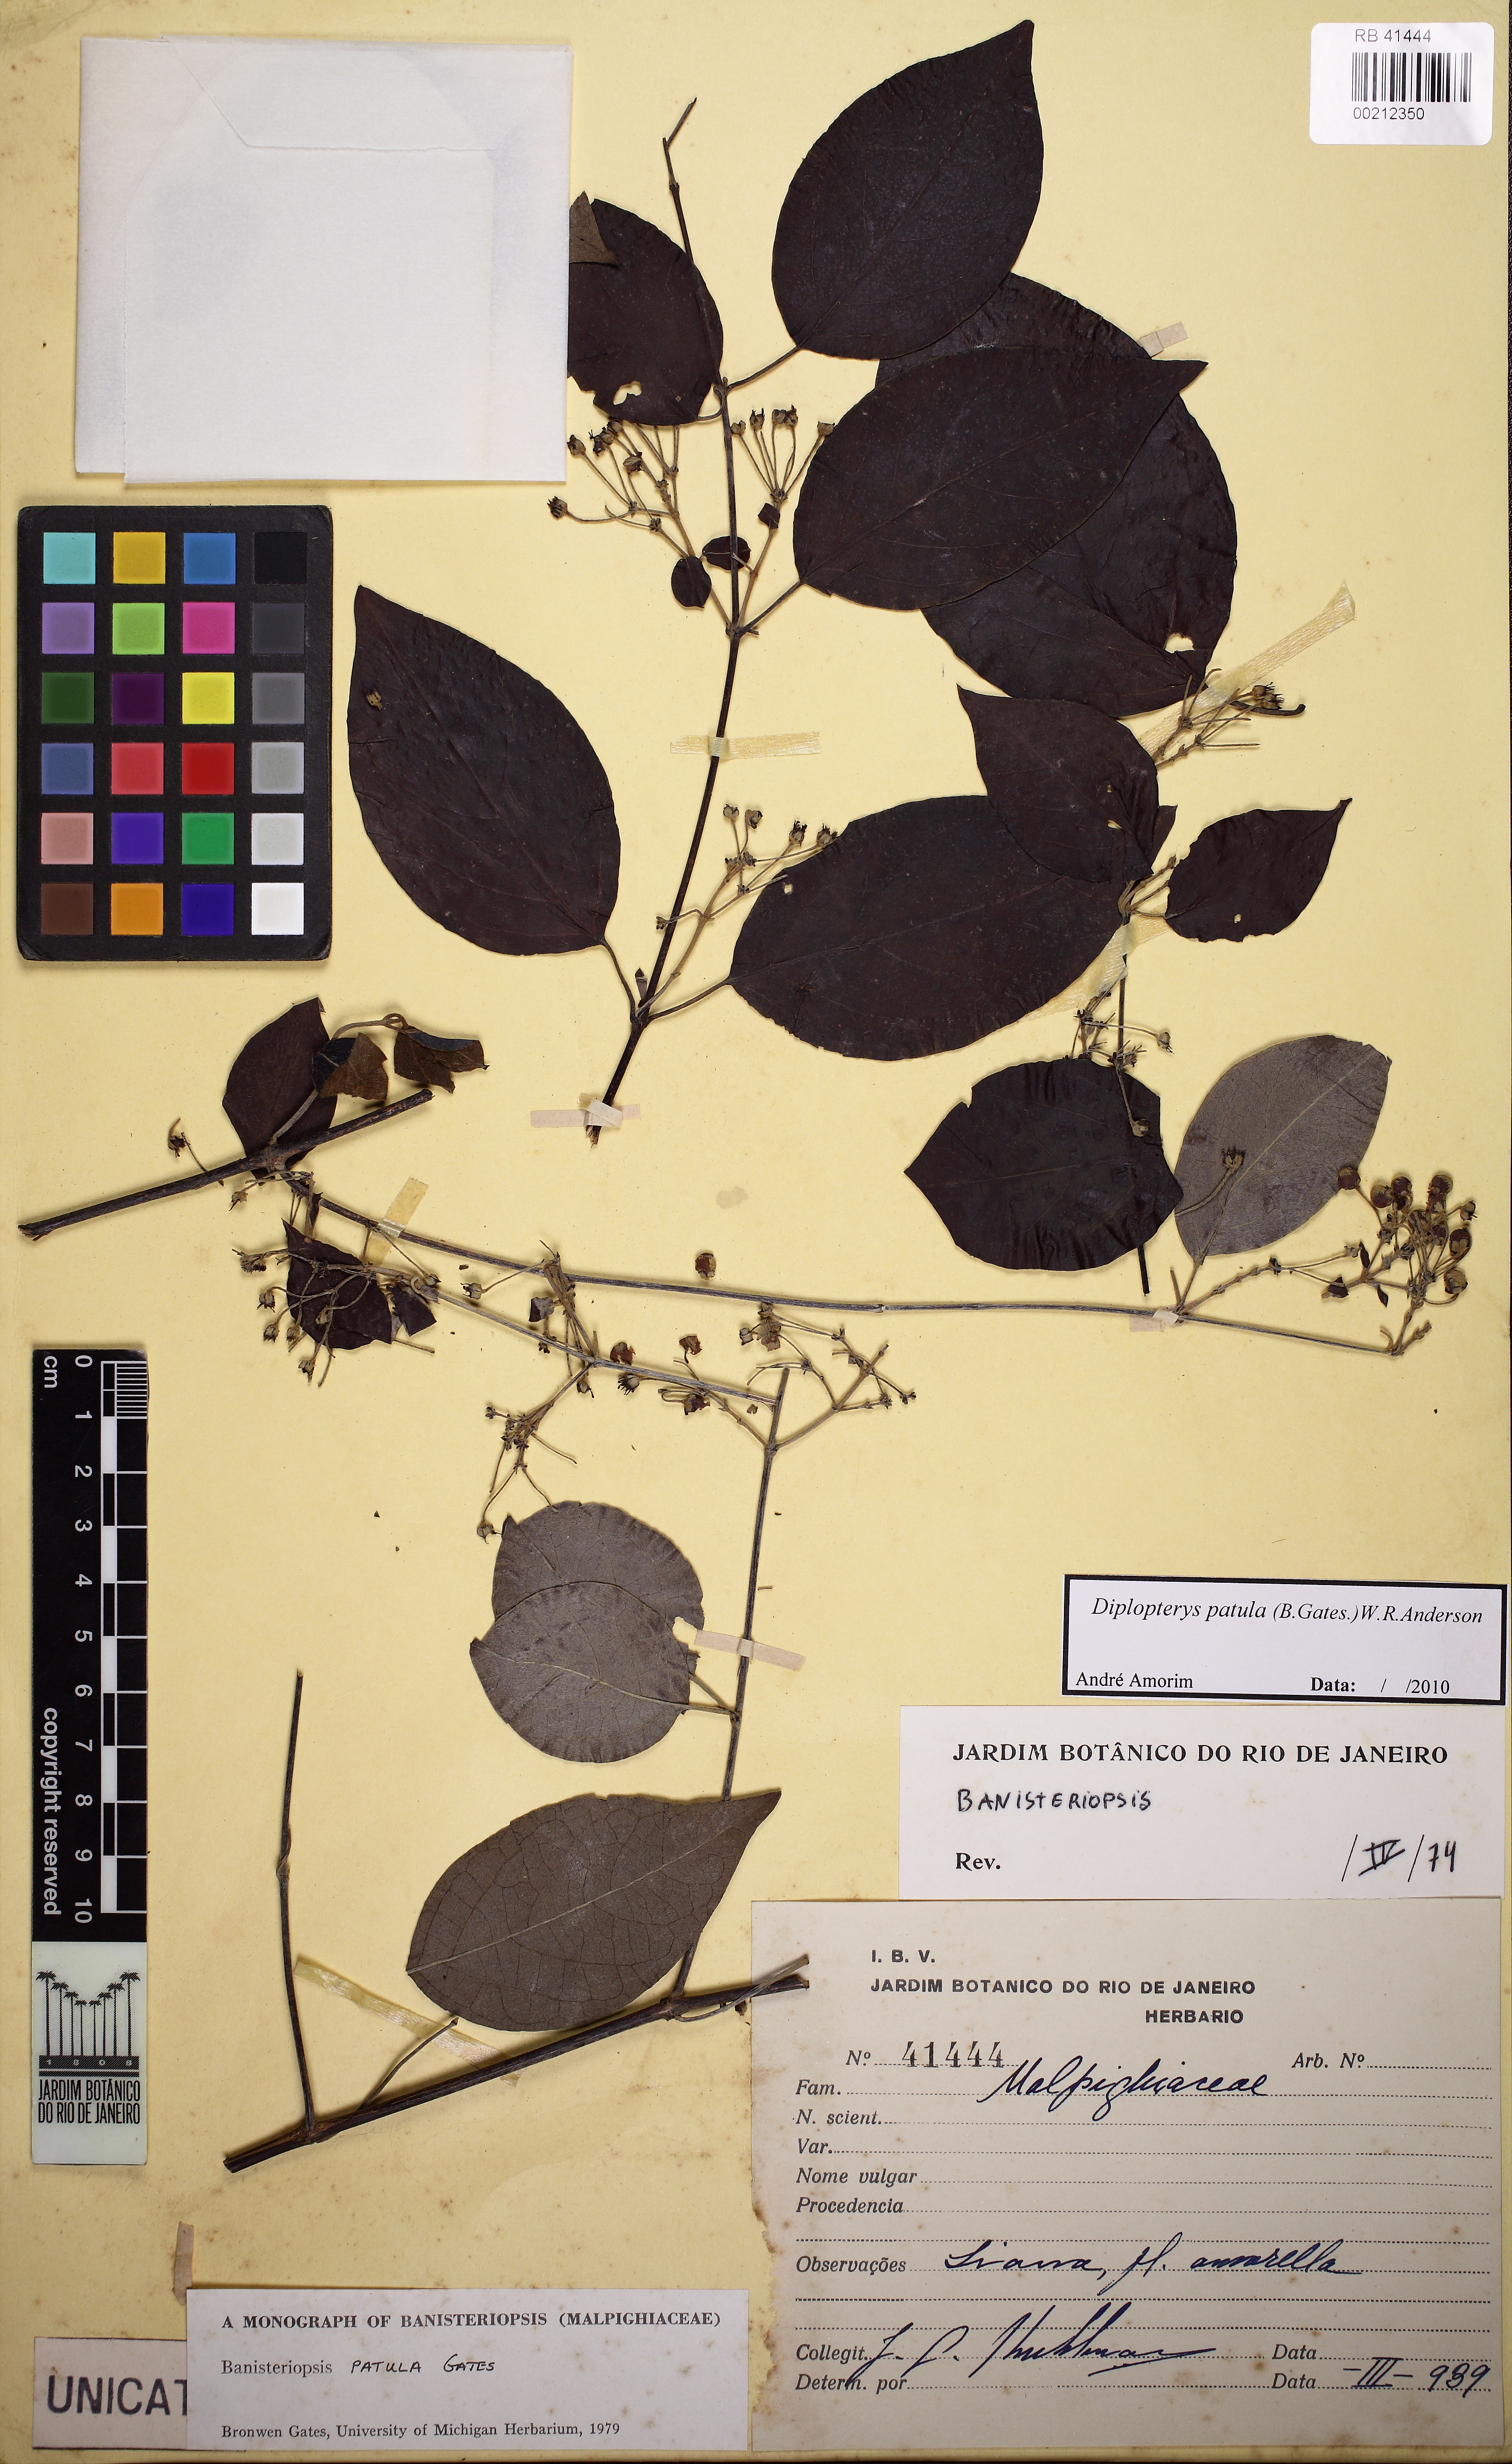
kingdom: Plantae
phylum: Tracheophyta
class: Magnoliopsida
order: Malpighiales
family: Malpighiaceae
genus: Diplopterys
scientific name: Diplopterys patula
